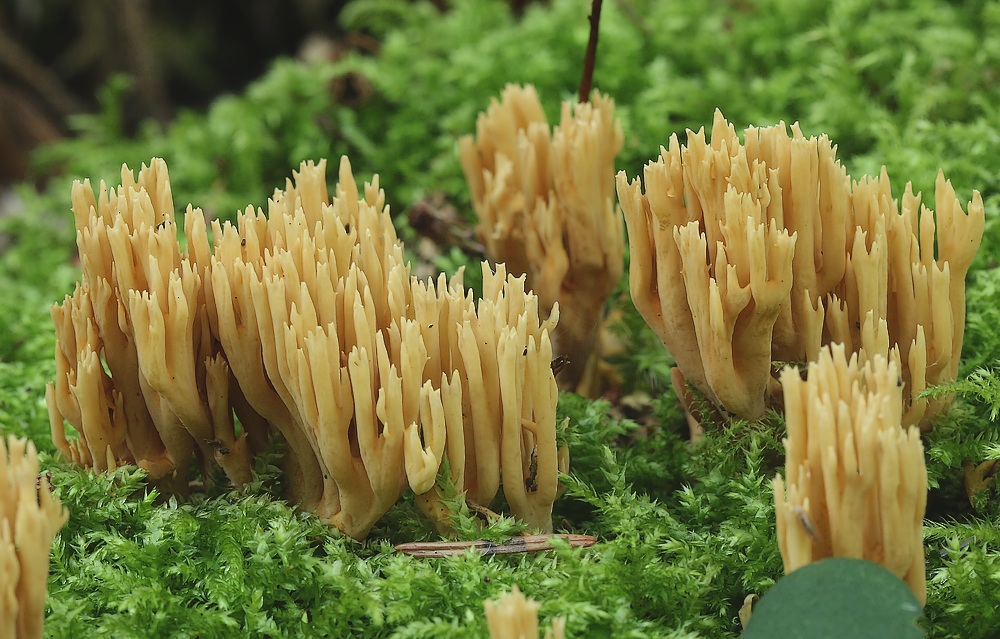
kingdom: Fungi
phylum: Basidiomycota
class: Agaricomycetes
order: Gomphales
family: Gomphaceae
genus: Phaeoclavulina
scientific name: Phaeoclavulina eumorpha
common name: gran-koralsvamp
